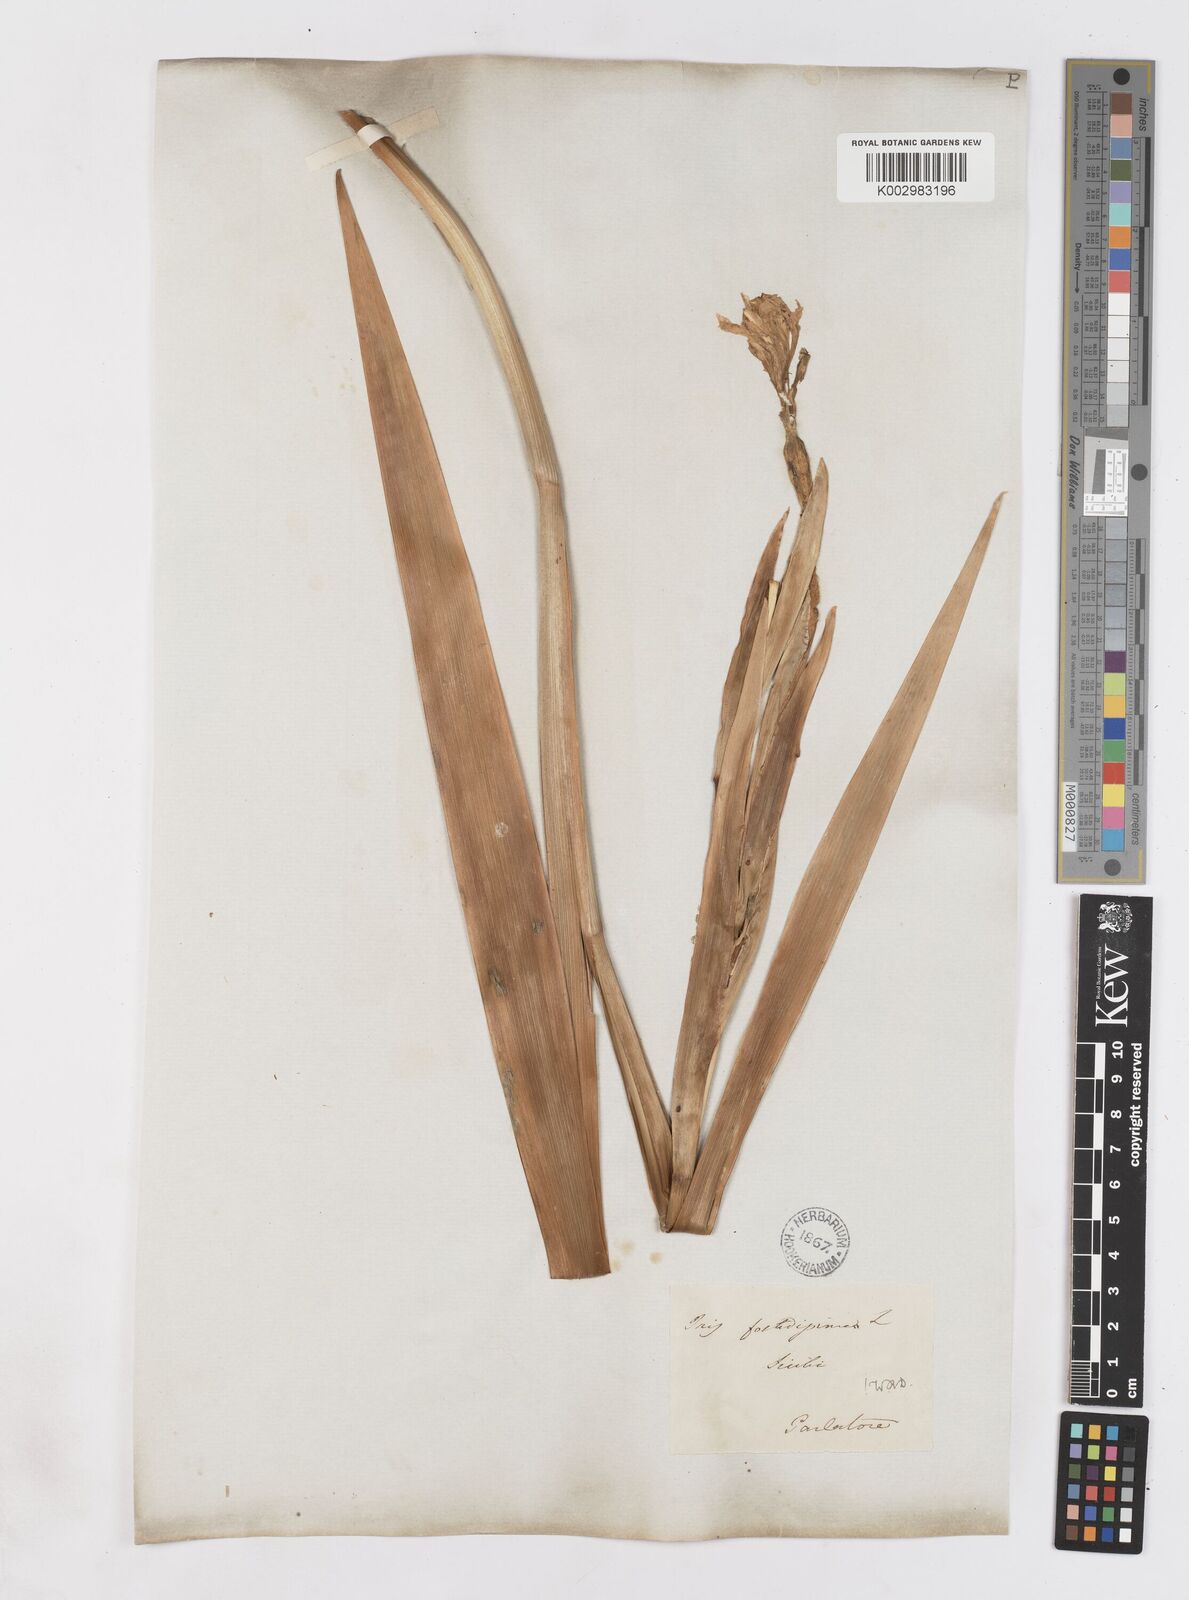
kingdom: Plantae
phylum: Tracheophyta
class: Liliopsida
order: Asparagales
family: Iridaceae
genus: Iris
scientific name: Iris foetidissima
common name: Stinking iris
